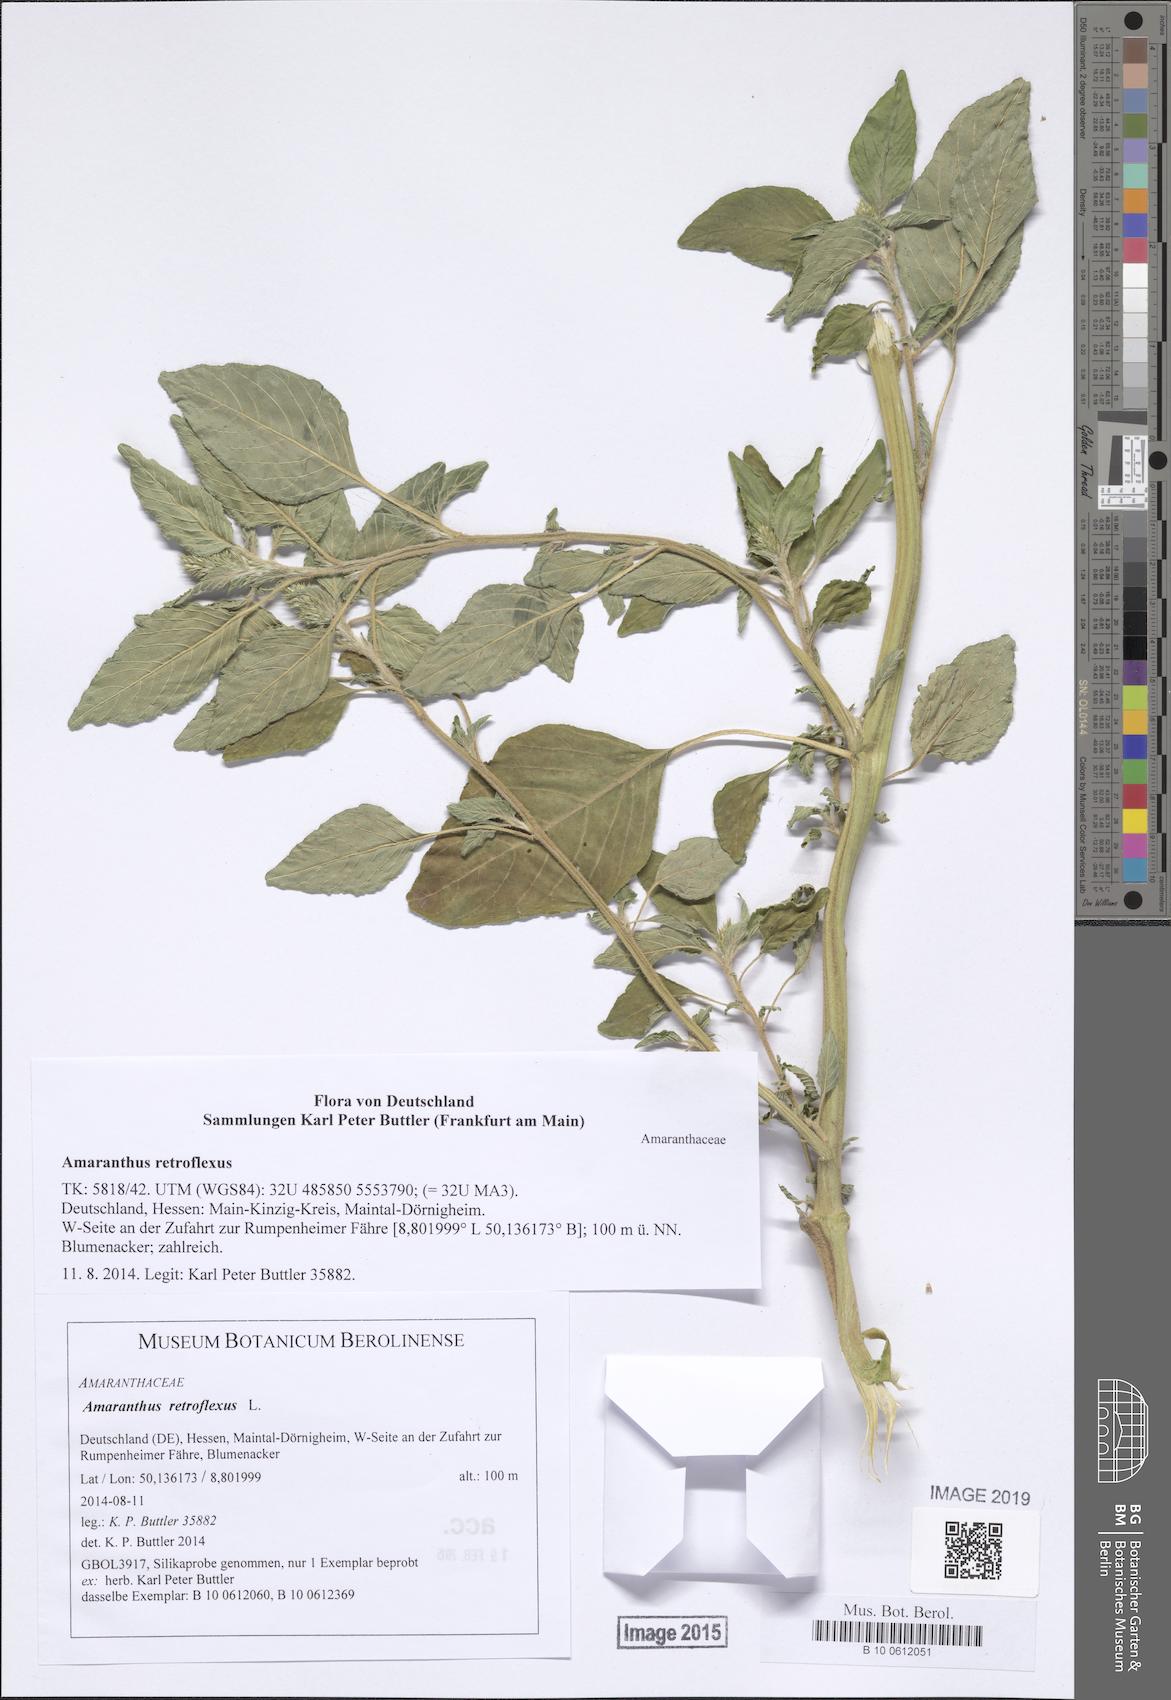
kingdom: Plantae
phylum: Tracheophyta
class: Magnoliopsida
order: Caryophyllales
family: Amaranthaceae
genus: Amaranthus
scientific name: Amaranthus retroflexus
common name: Redroot amaranth
